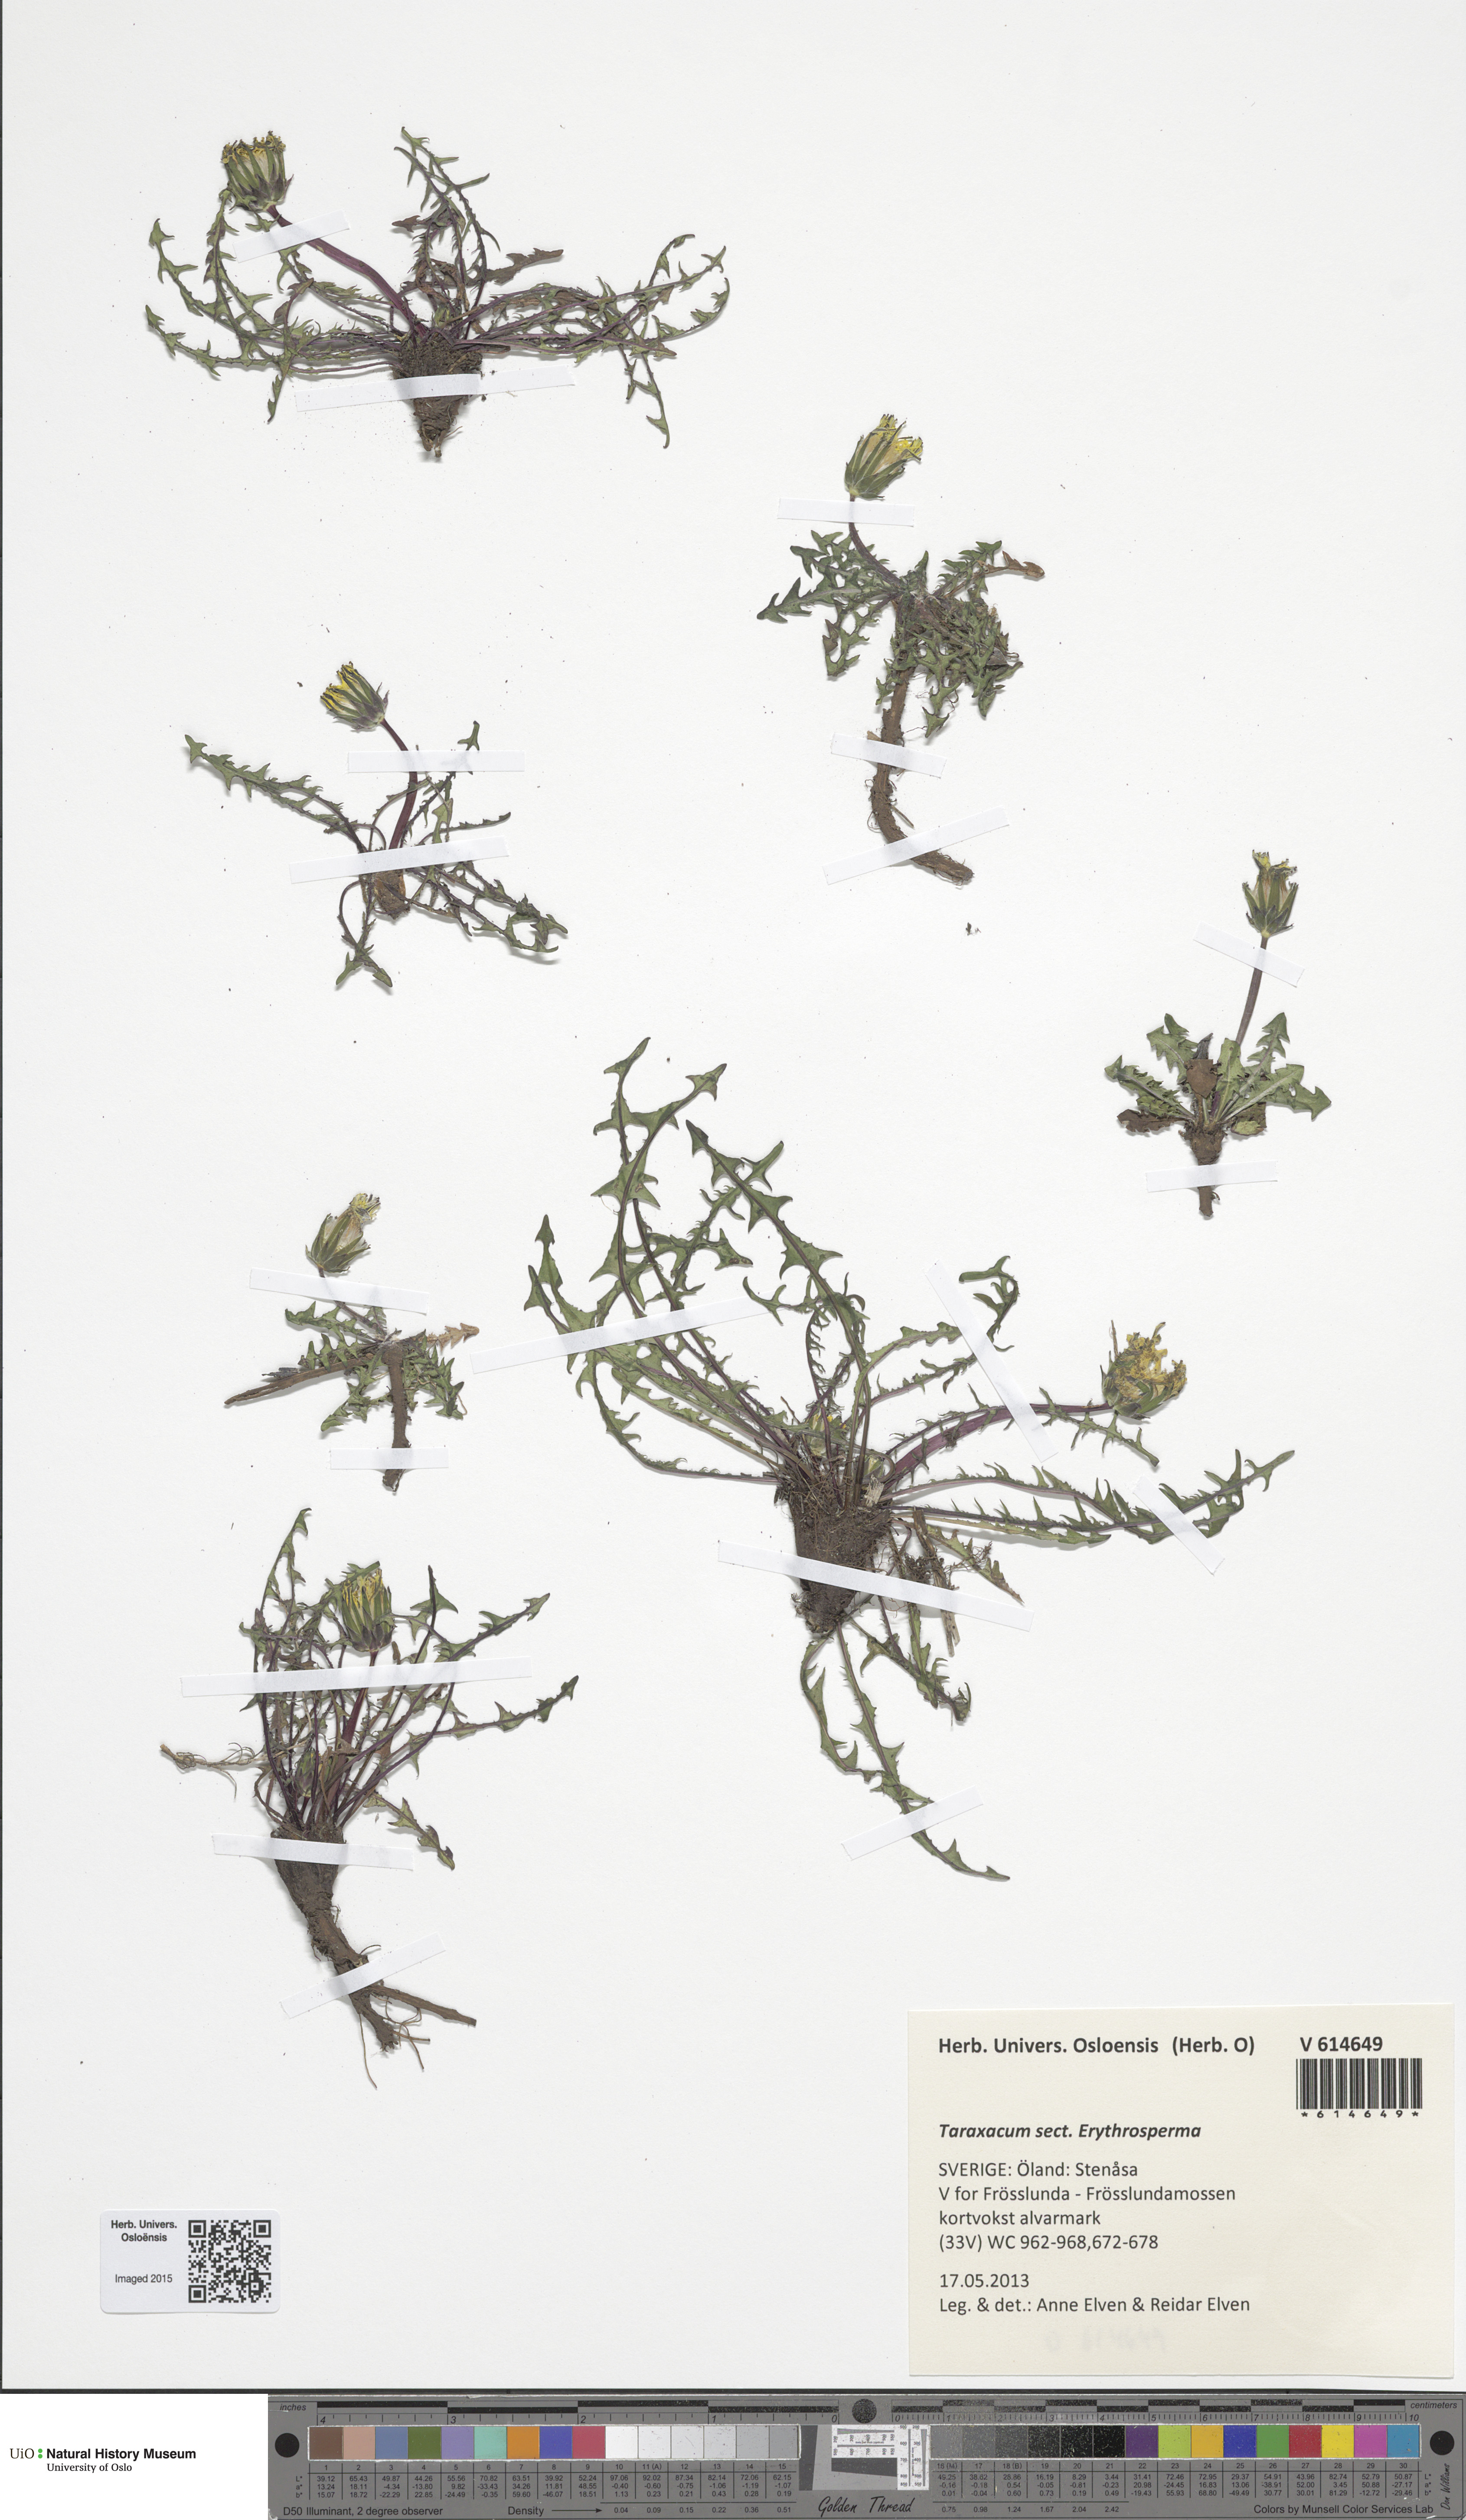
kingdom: Plantae
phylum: Tracheophyta
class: Magnoliopsida
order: Asterales
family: Asteraceae
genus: Taraxacum
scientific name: Taraxacum
